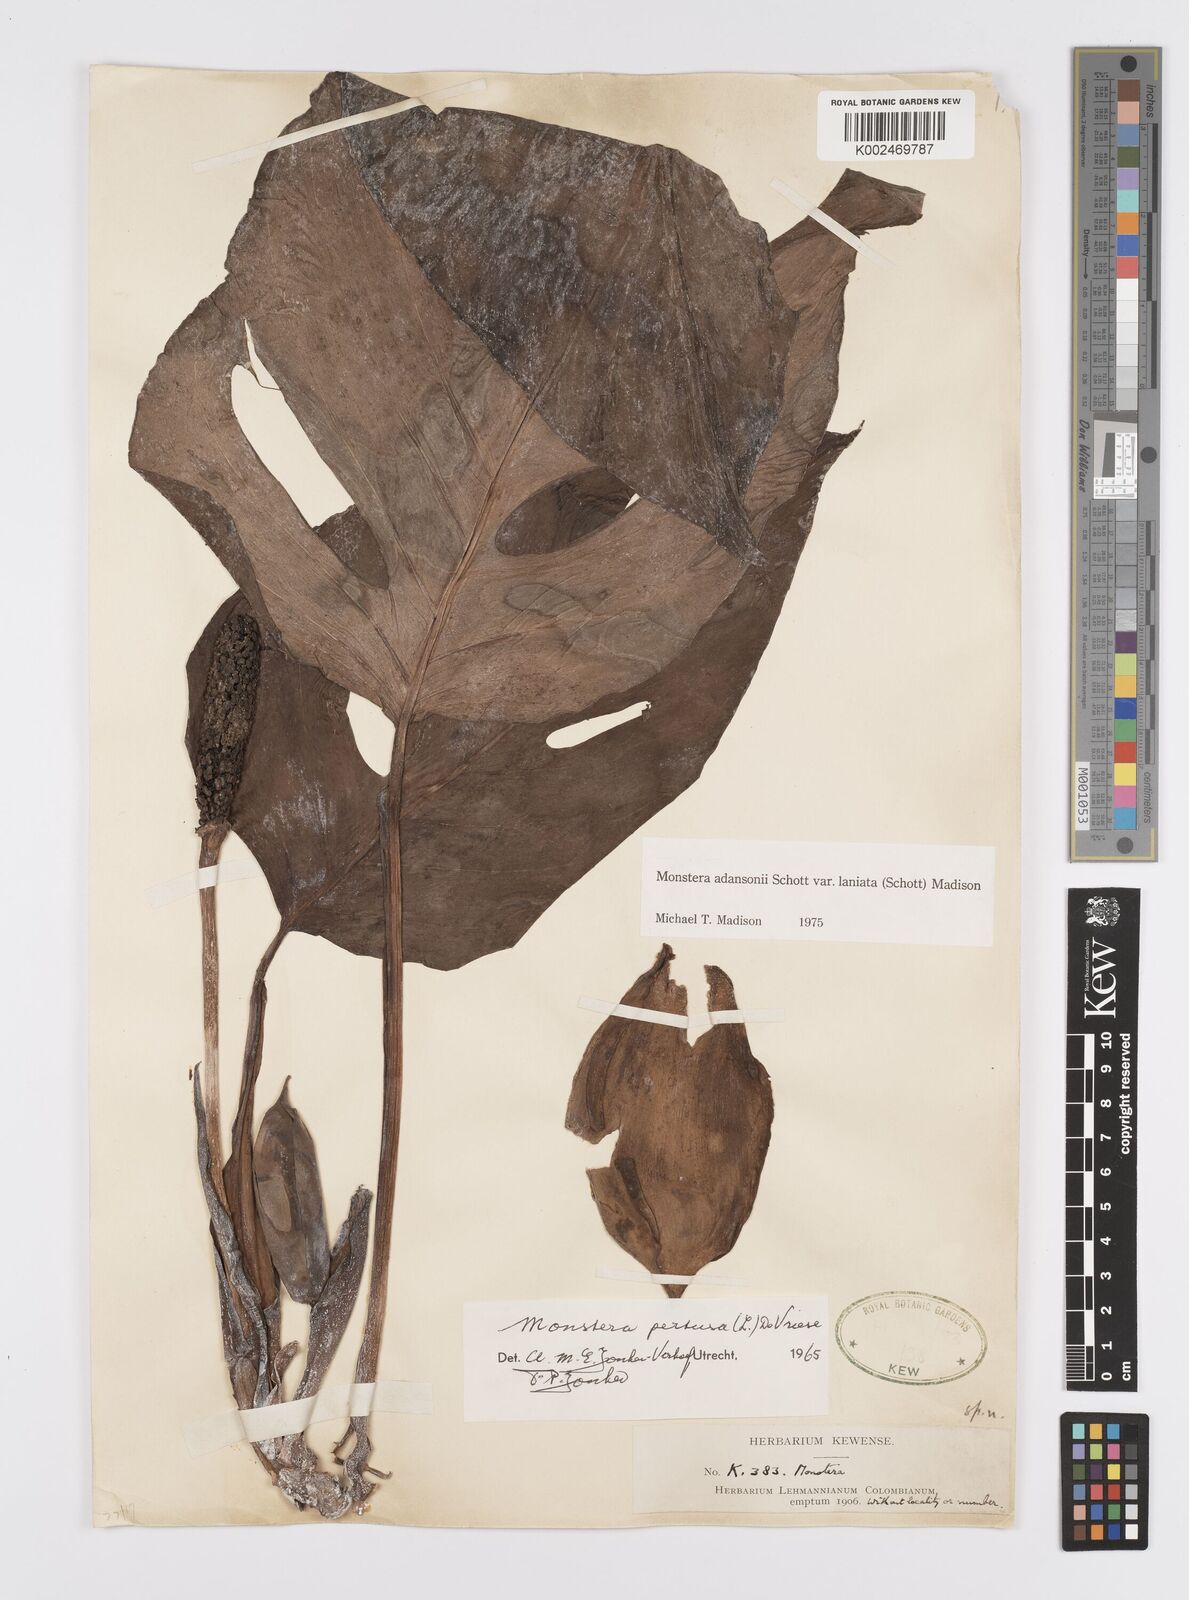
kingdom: Plantae
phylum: Tracheophyta
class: Liliopsida
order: Alismatales
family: Araceae
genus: Monstera
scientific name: Monstera adansonii
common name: Tarovine
